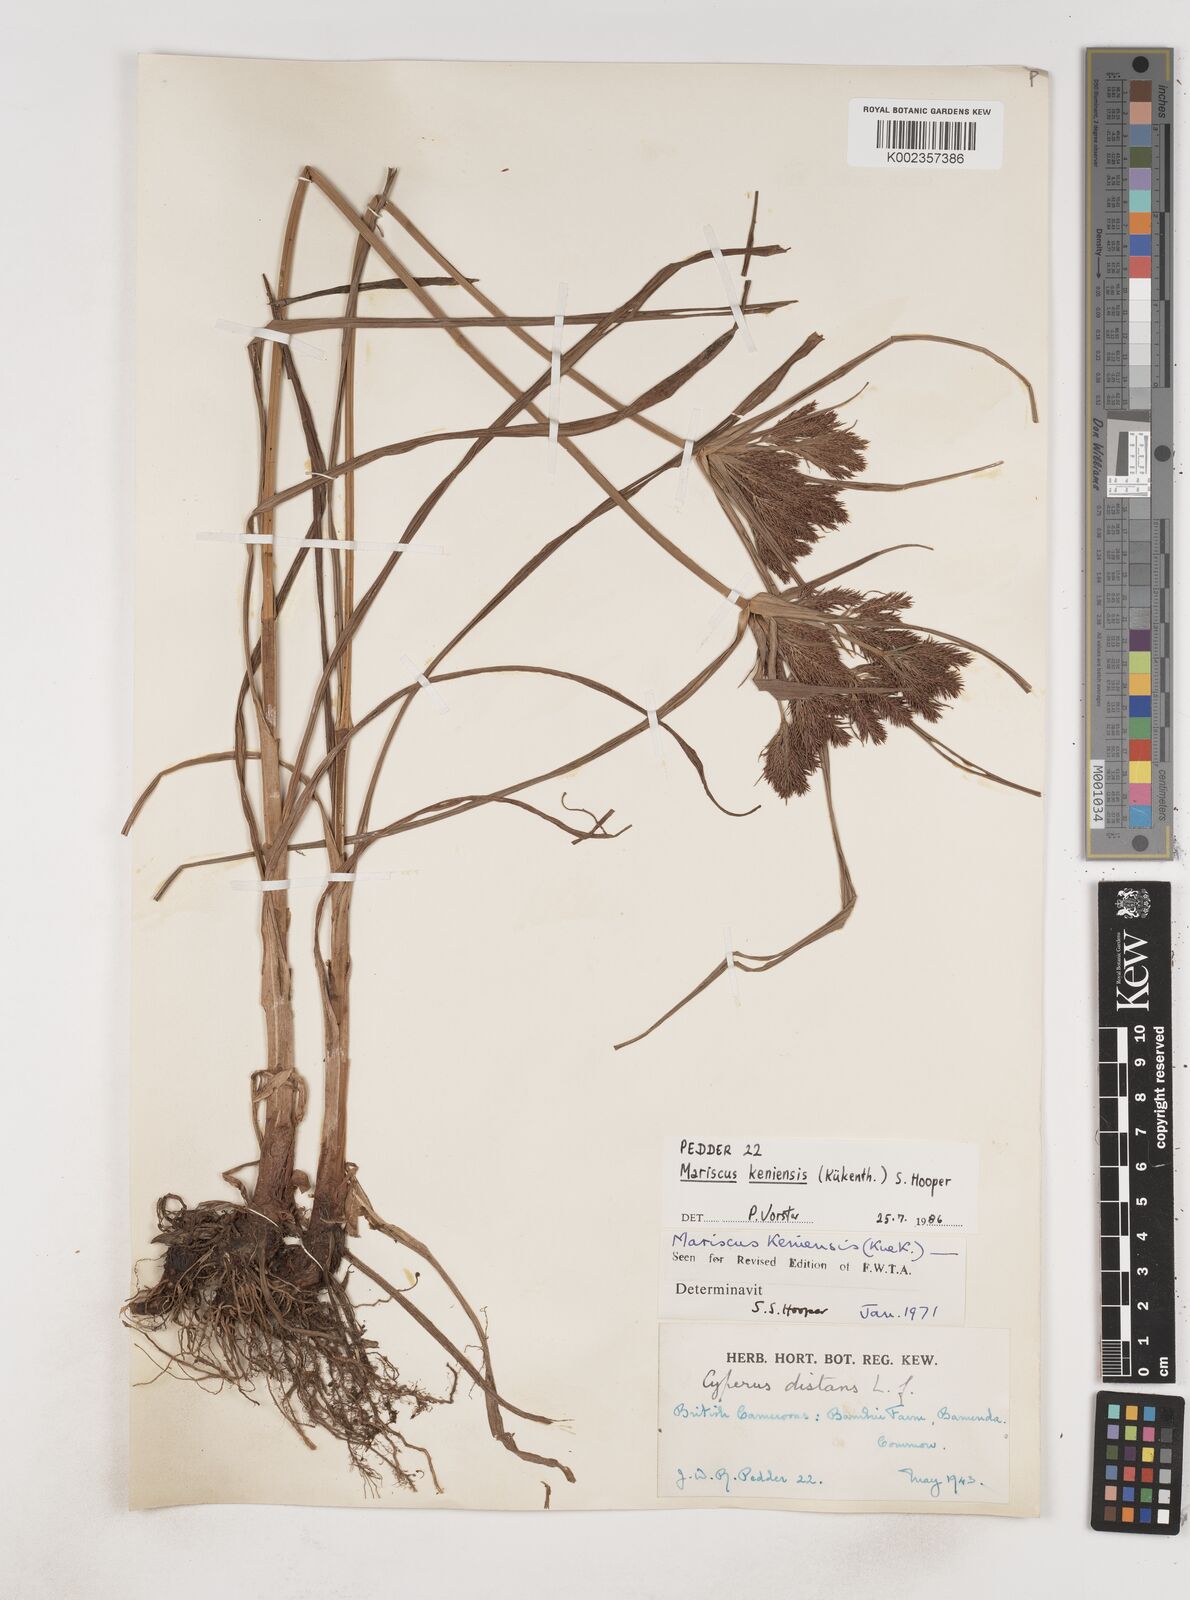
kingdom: Plantae
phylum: Tracheophyta
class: Liliopsida
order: Poales
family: Cyperaceae
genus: Cyperus
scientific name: Cyperus distans
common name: Slender cyperus
